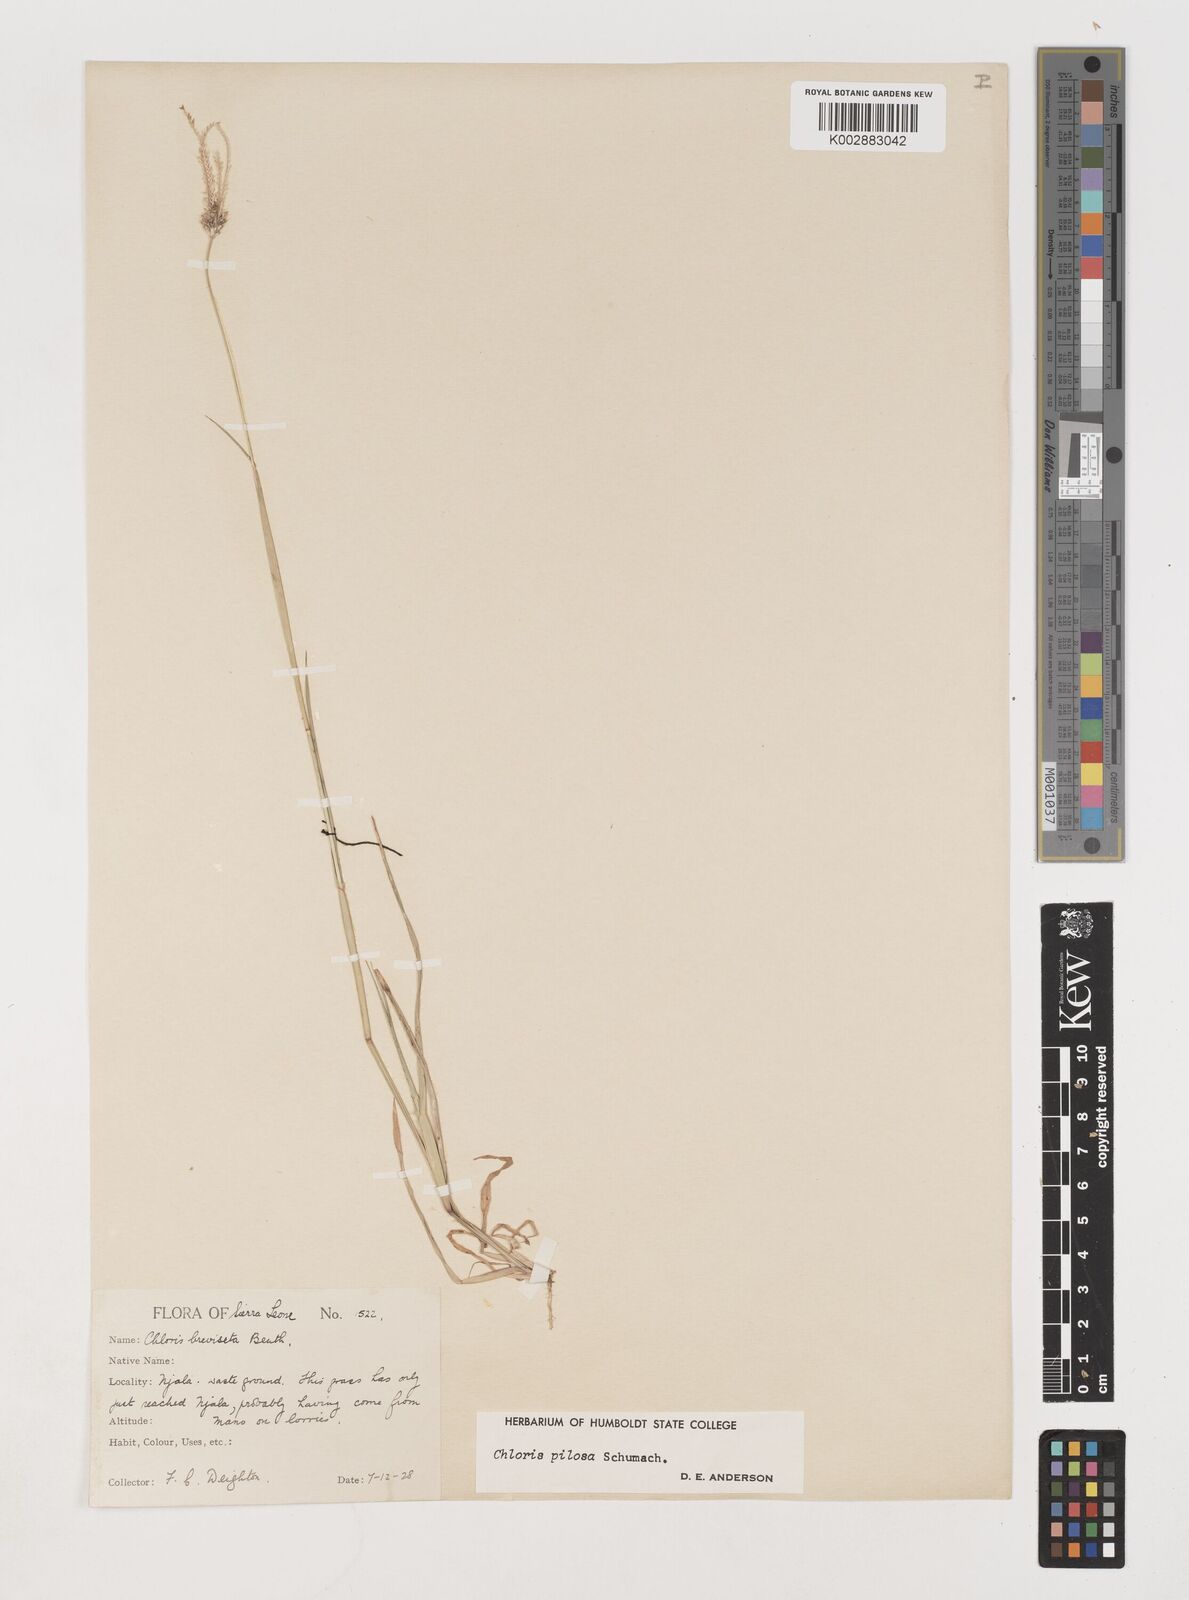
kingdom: Plantae
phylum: Tracheophyta
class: Liliopsida
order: Poales
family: Poaceae
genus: Chloris
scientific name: Chloris pilosa
